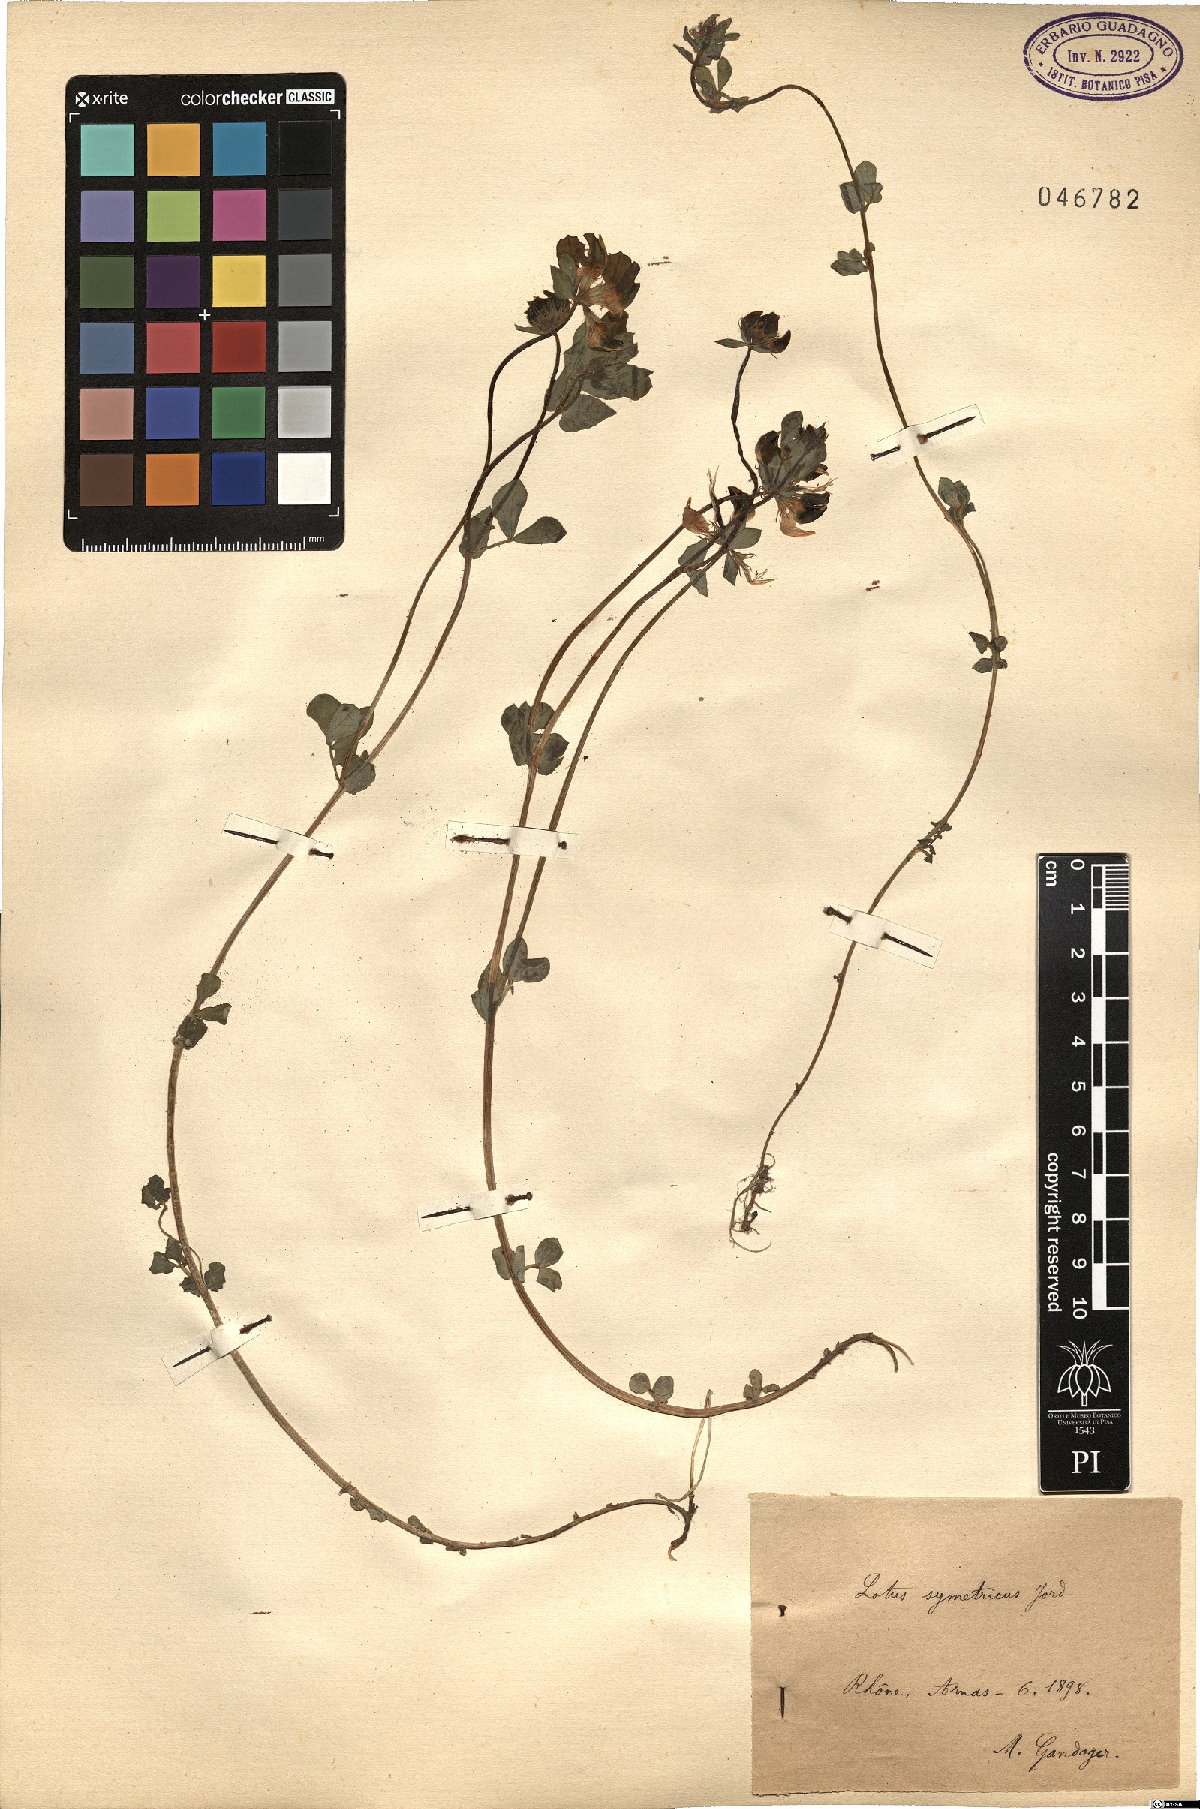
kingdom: Plantae
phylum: Tracheophyta
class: Magnoliopsida
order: Fabales
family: Fabaceae
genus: Lotus
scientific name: Lotus corniculatus
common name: Common bird's-foot-trefoil
